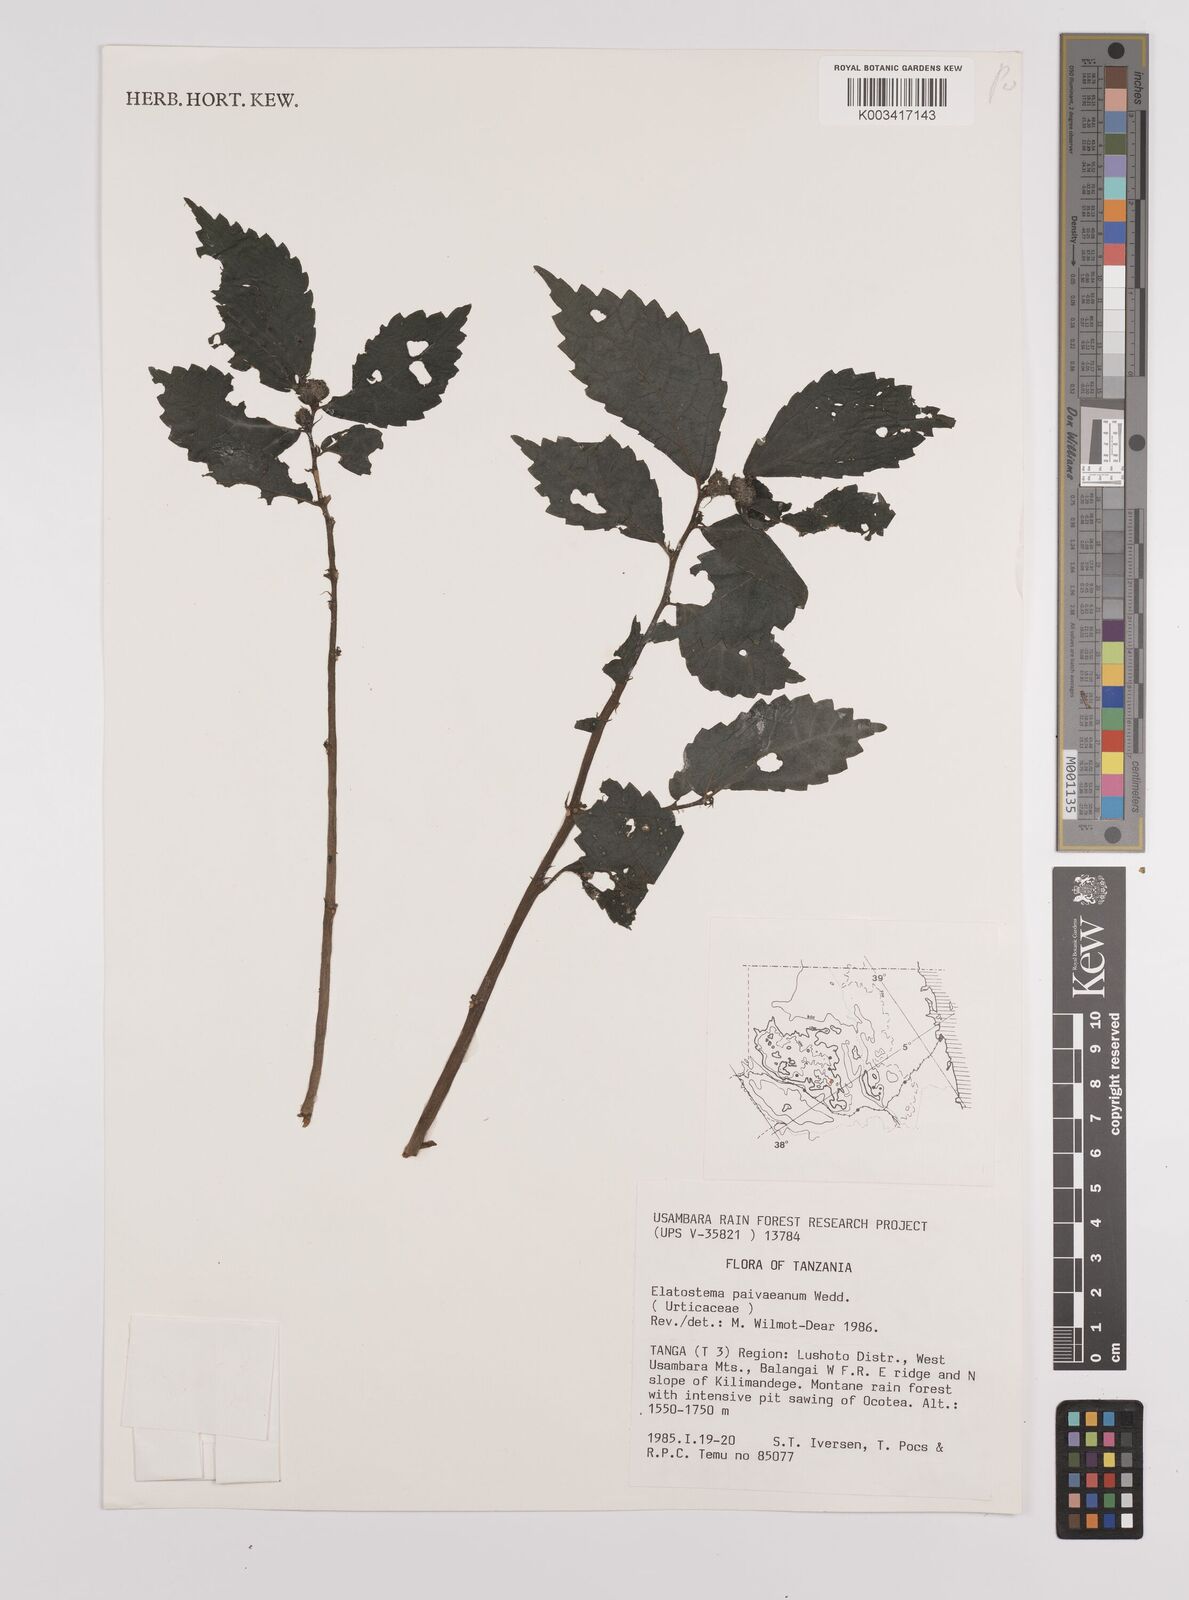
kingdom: Plantae
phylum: Tracheophyta
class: Magnoliopsida
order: Rosales
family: Urticaceae
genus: Elatostema
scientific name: Elatostema paivaeanum
